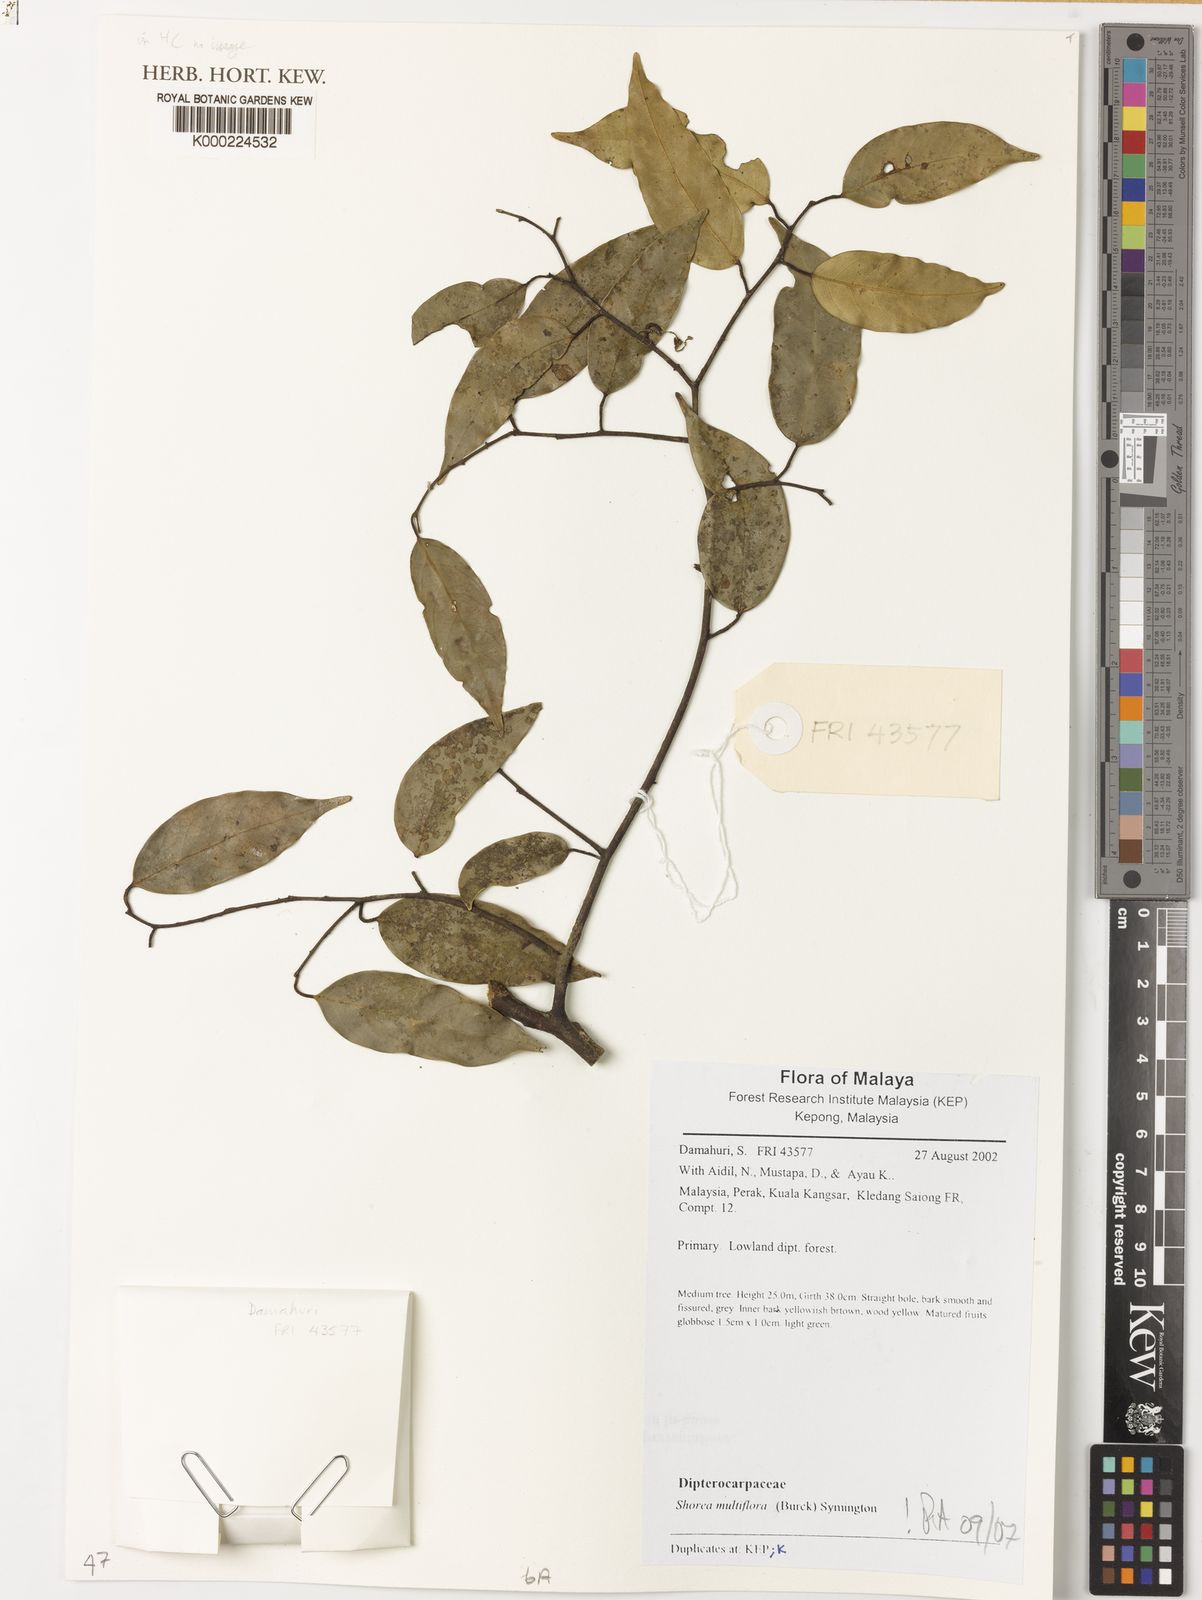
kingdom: Plantae
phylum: Tracheophyta
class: Magnoliopsida
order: Malvales
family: Dipterocarpaceae
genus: Shorea
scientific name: Shorea multiflora
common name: Yellow meranti
